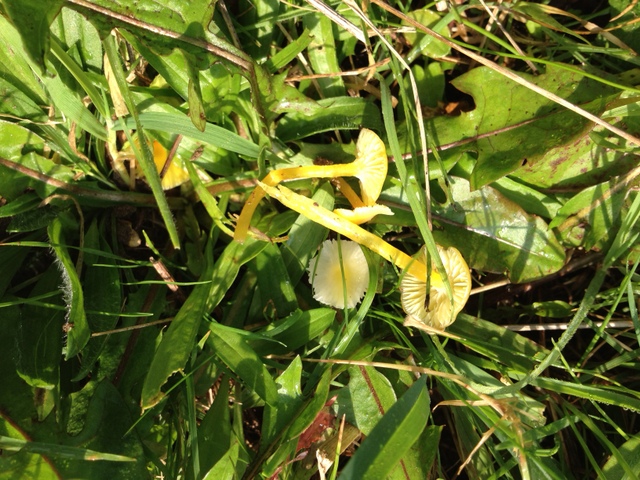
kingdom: Fungi
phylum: Basidiomycota
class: Agaricomycetes
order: Agaricales
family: Hygrophoraceae
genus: Hygrocybe
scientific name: Hygrocybe glutinipes
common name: slimstokket vokshat
